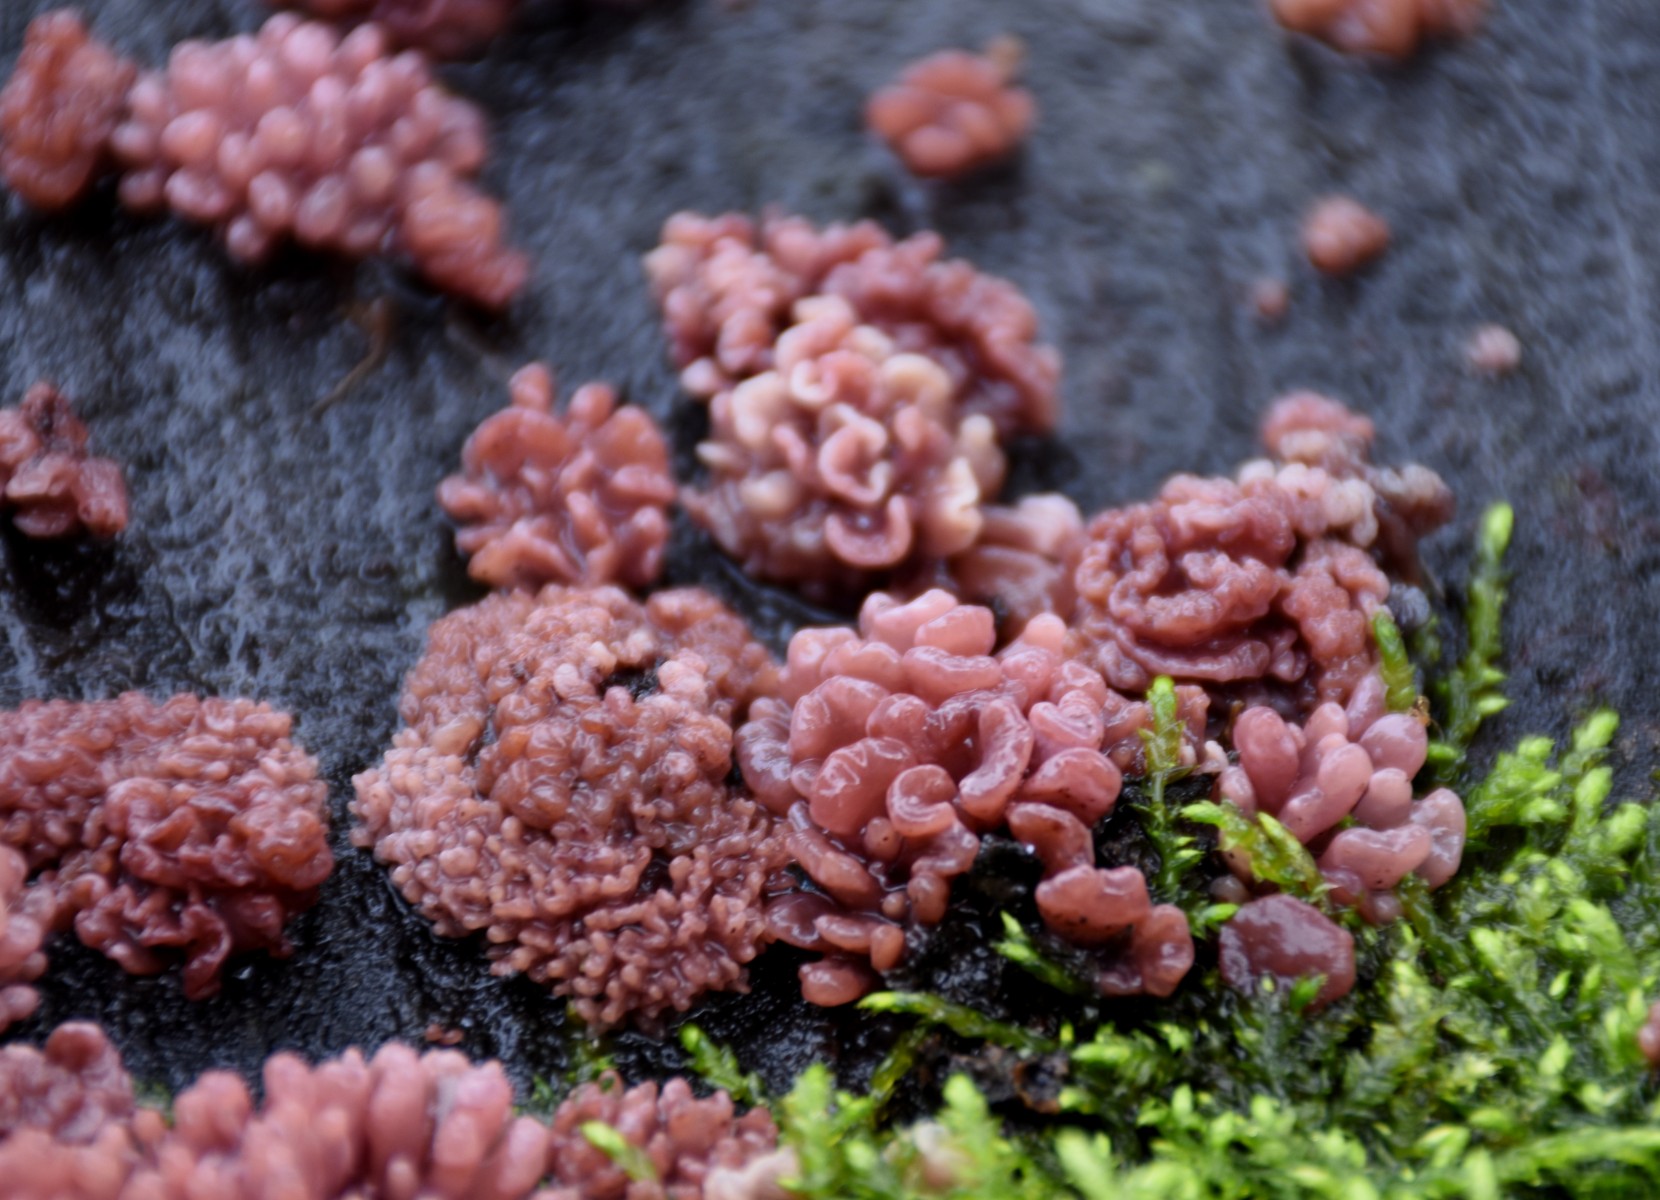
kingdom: Fungi
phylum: Ascomycota
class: Leotiomycetes
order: Helotiales
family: Gelatinodiscaceae
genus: Ascocoryne
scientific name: Ascocoryne sarcoides
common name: rødlilla sejskive
